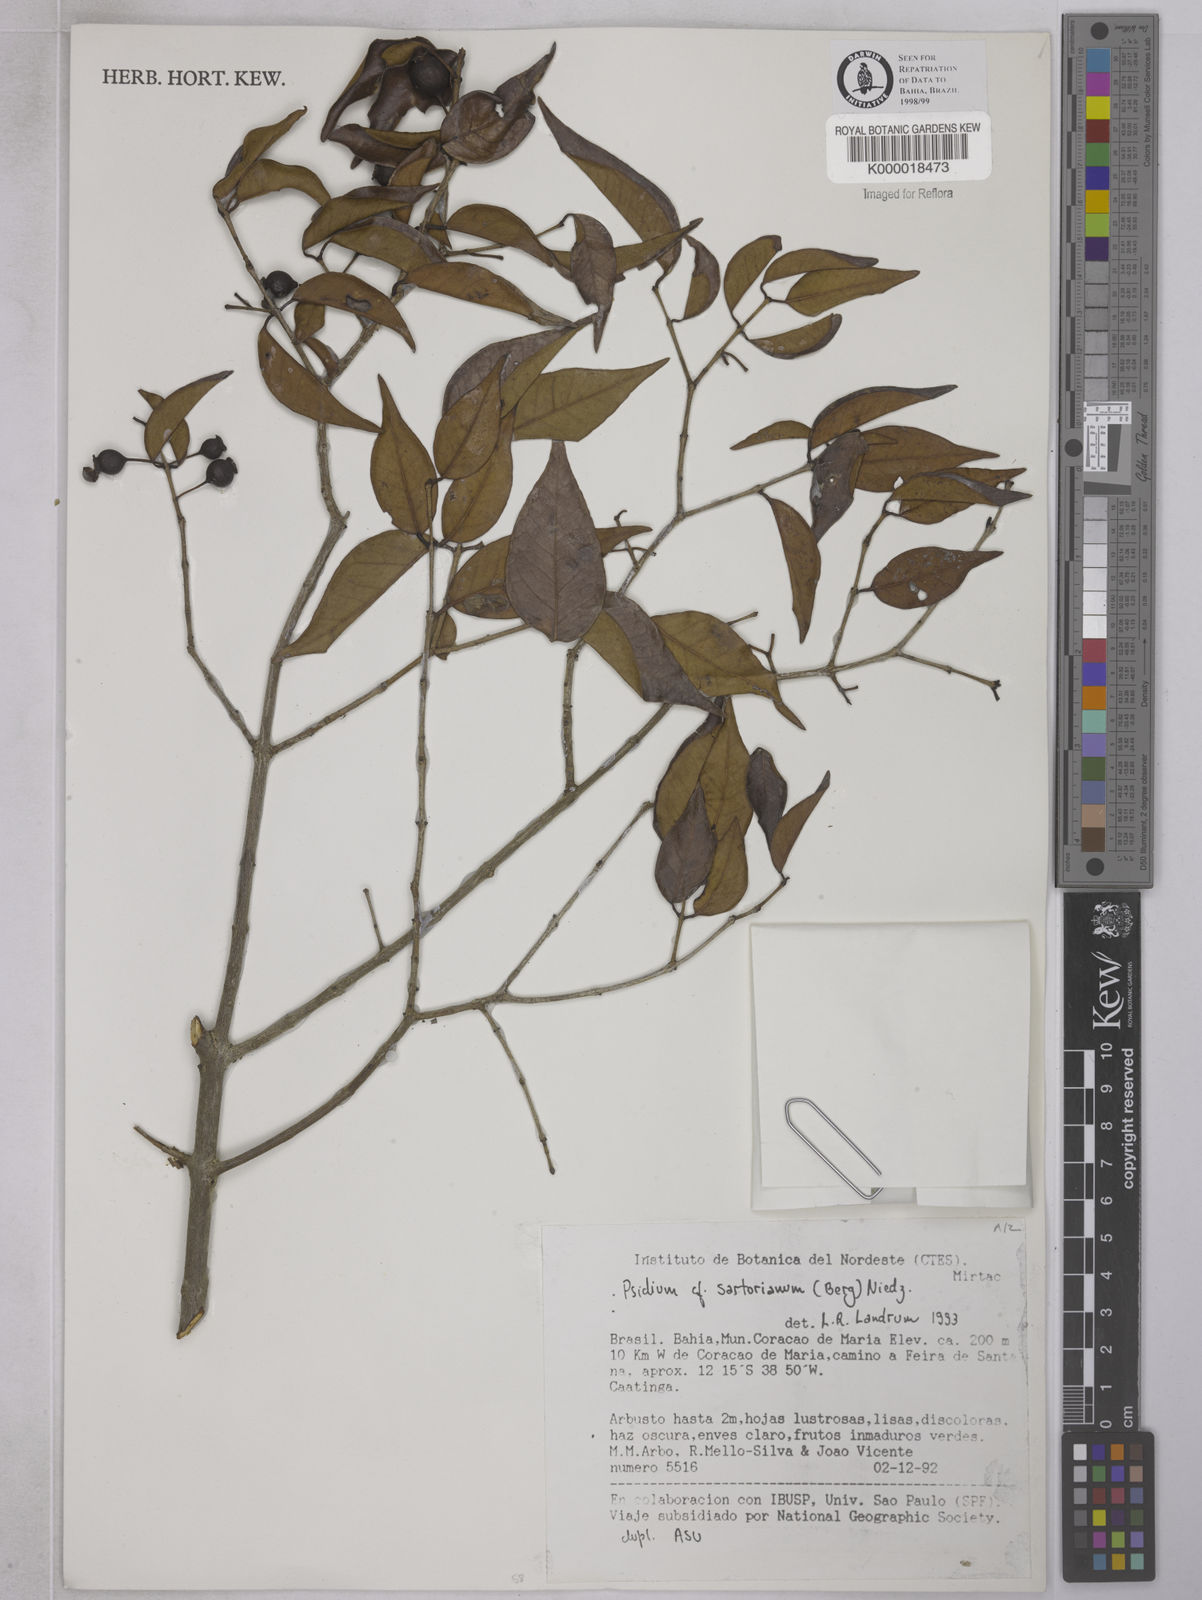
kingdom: Plantae
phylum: Tracheophyta
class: Magnoliopsida
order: Myrtales
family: Myrtaceae
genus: Psidium
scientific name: Psidium sartorianum
